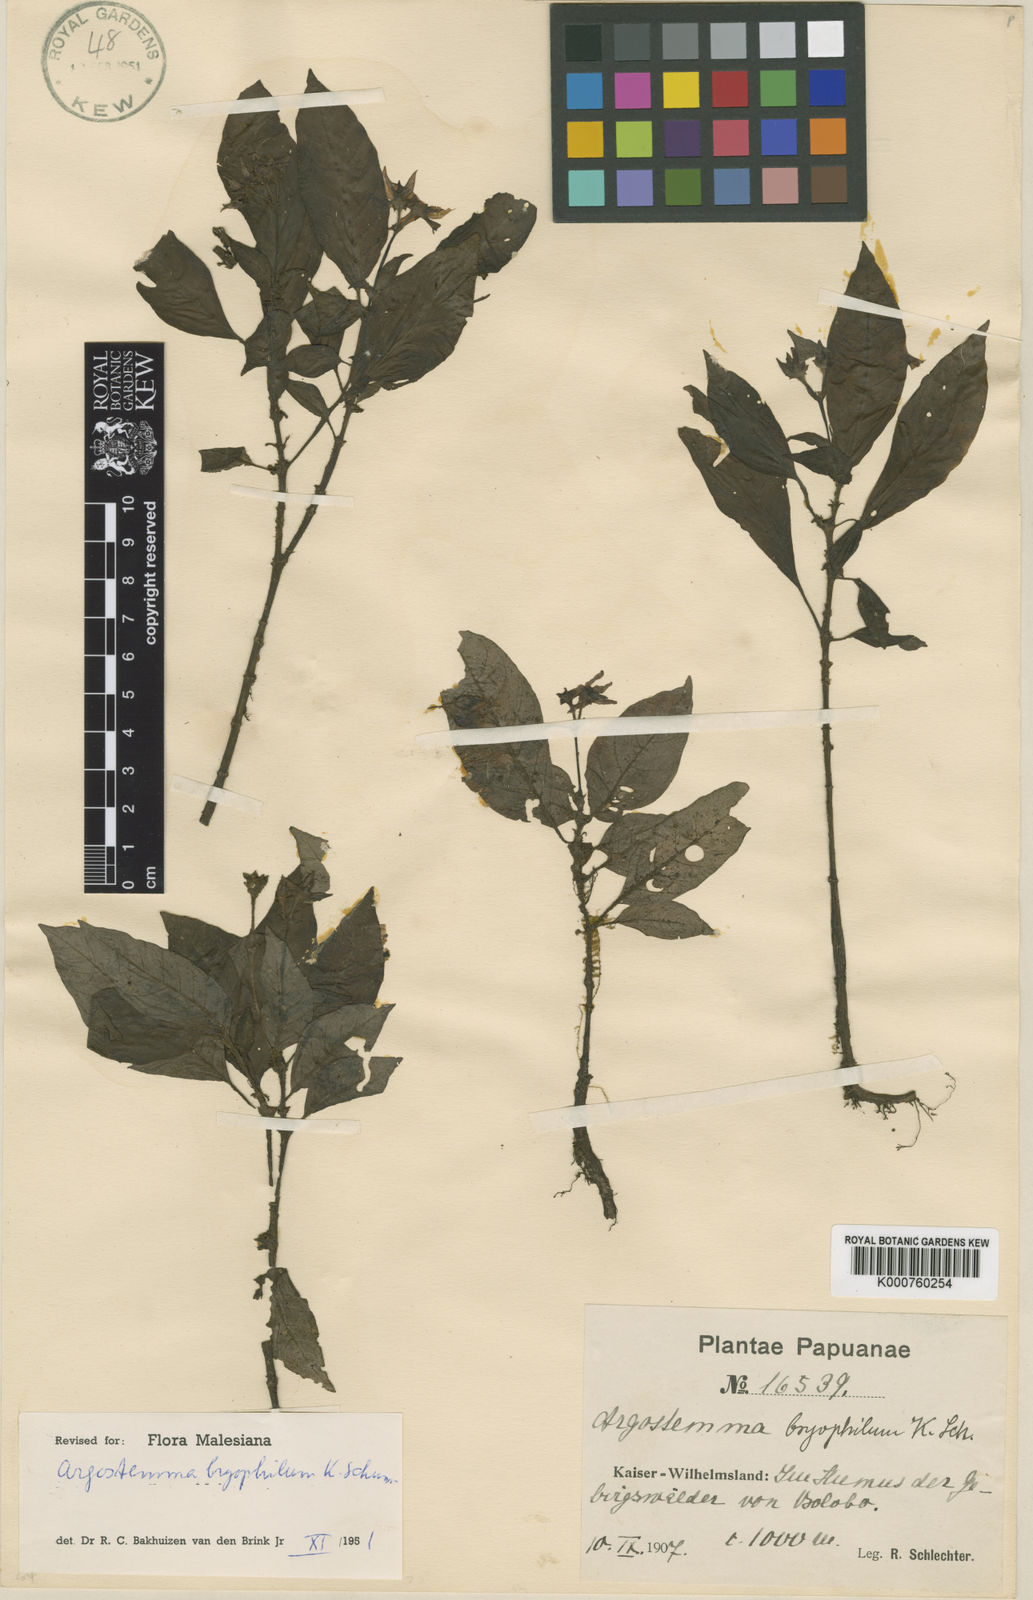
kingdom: Plantae
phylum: Tracheophyta
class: Magnoliopsida
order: Gentianales
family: Rubiaceae
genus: Argostemma
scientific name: Argostemma bryophilum
